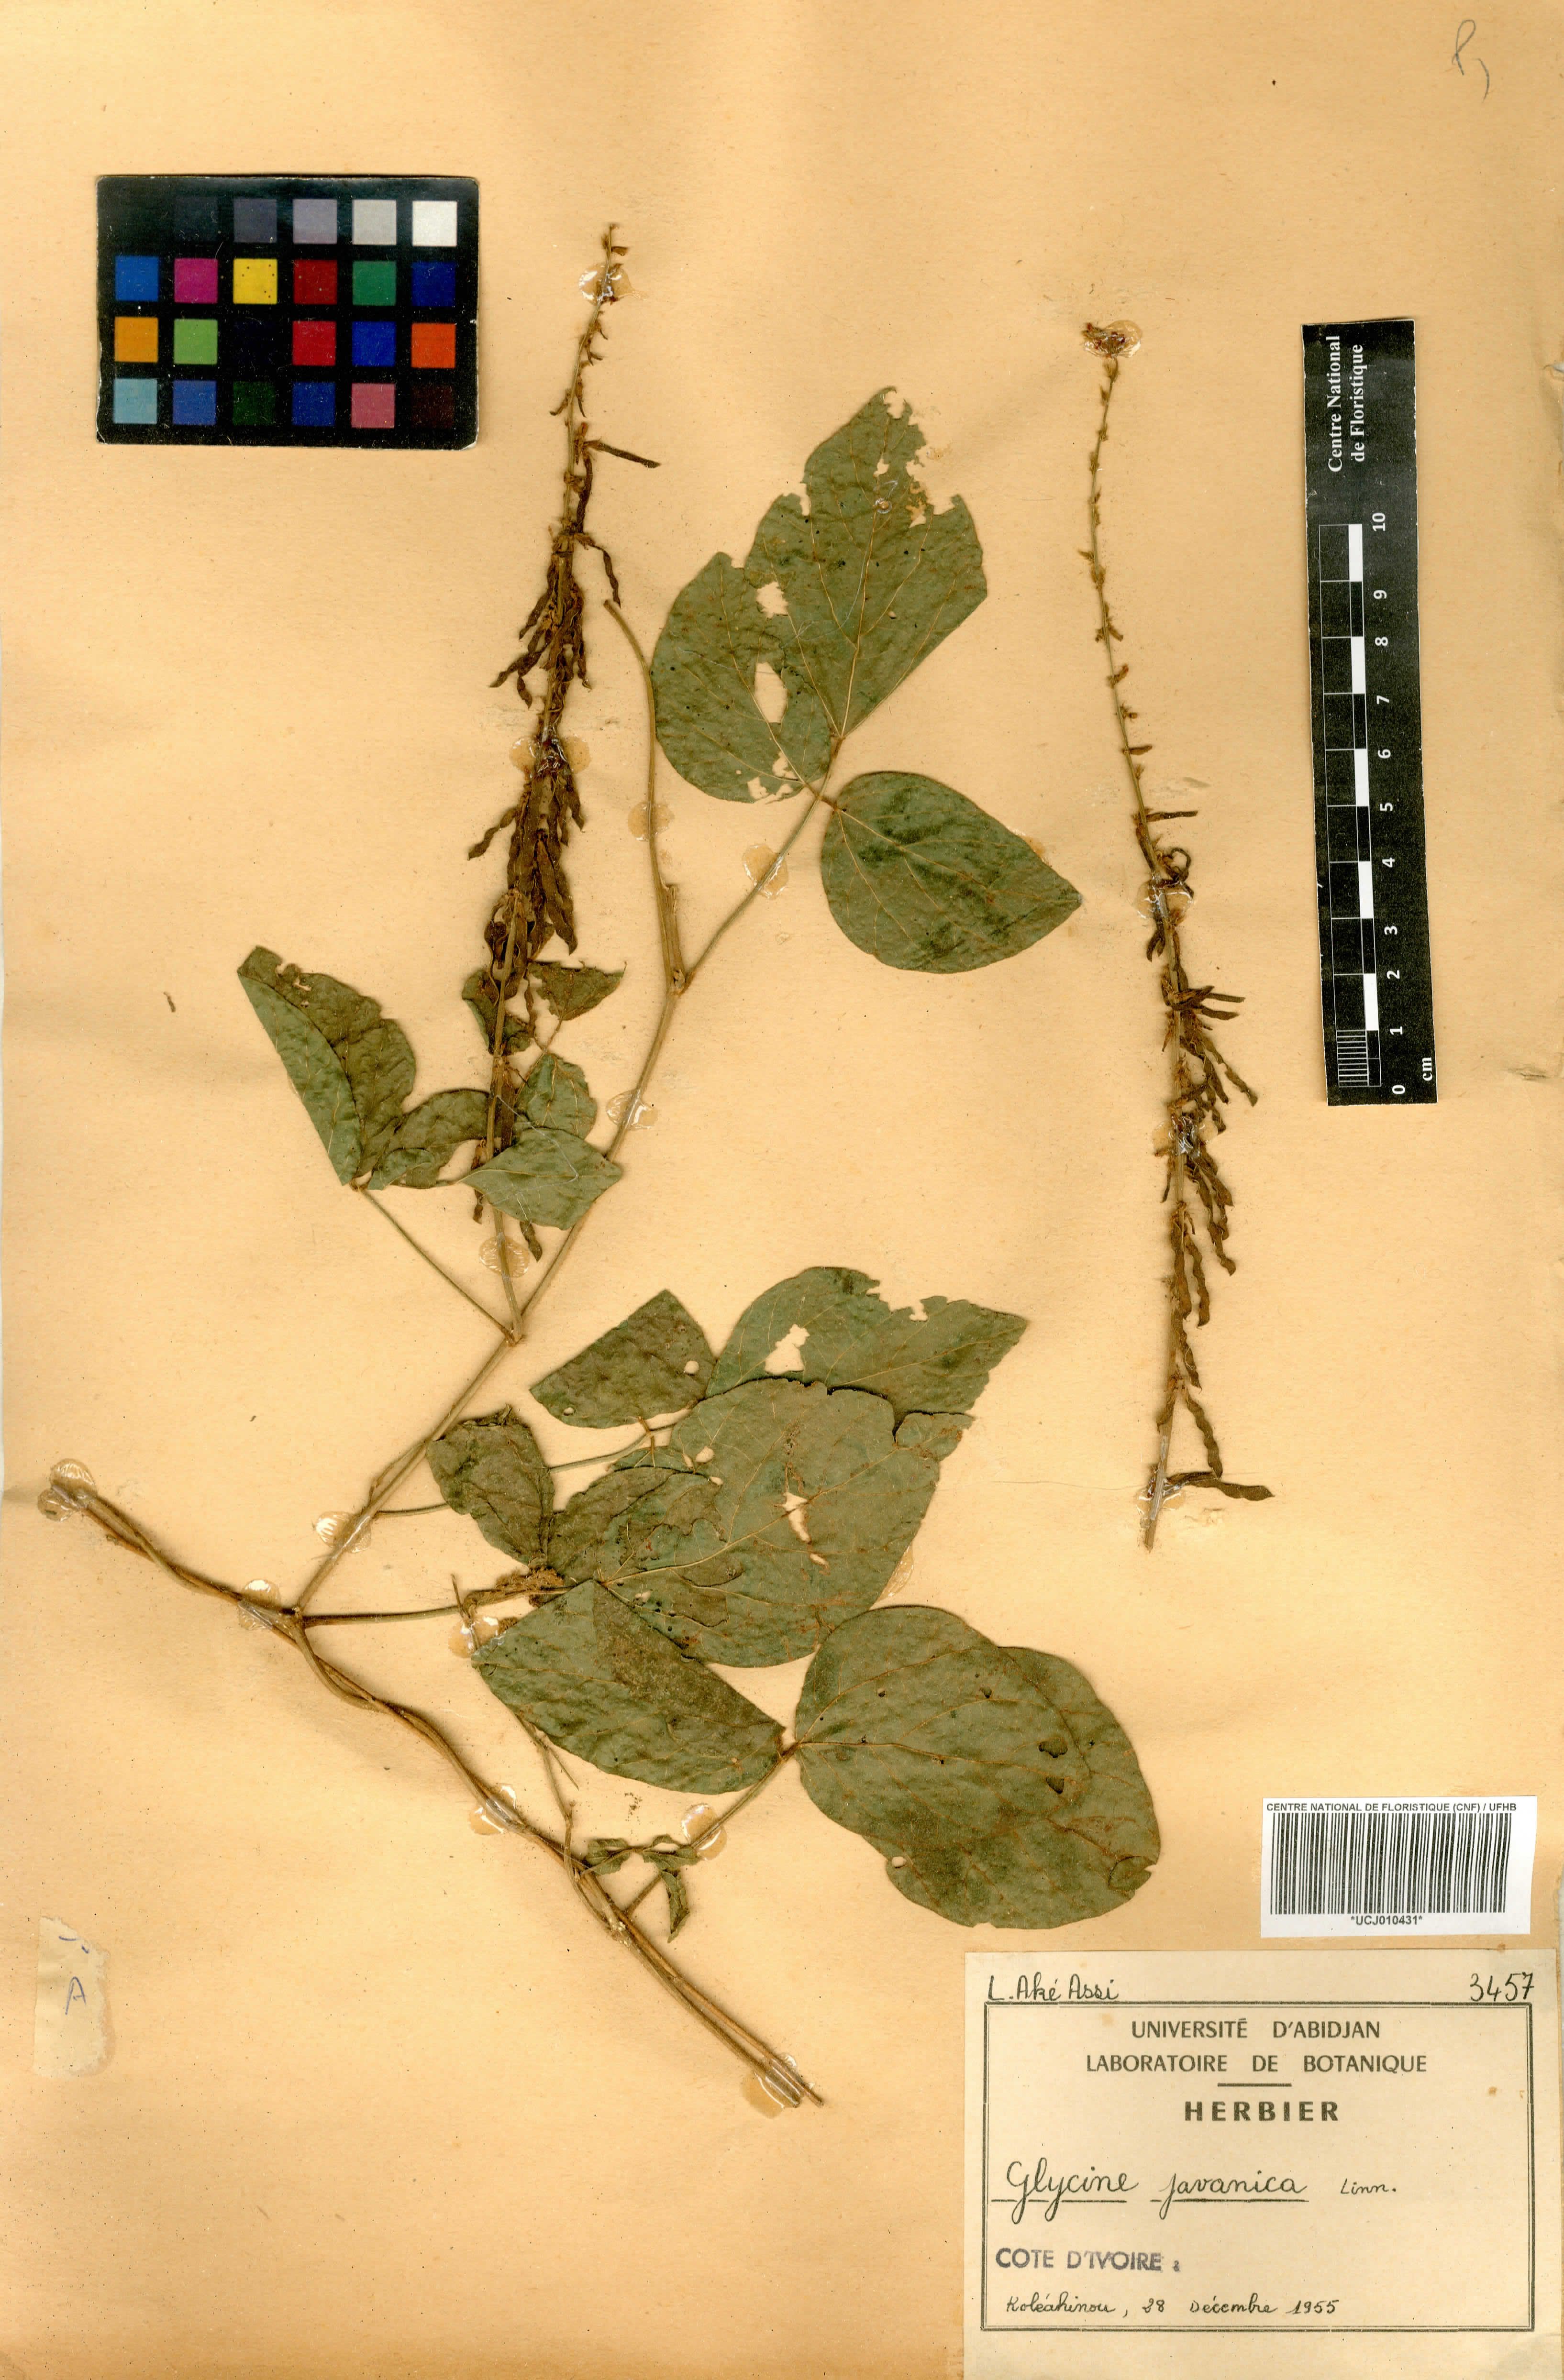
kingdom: Plantae
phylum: Tracheophyta
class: Magnoliopsida
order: Fabales
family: Fabaceae
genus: Pueraria
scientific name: Pueraria montana
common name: Kudzu
